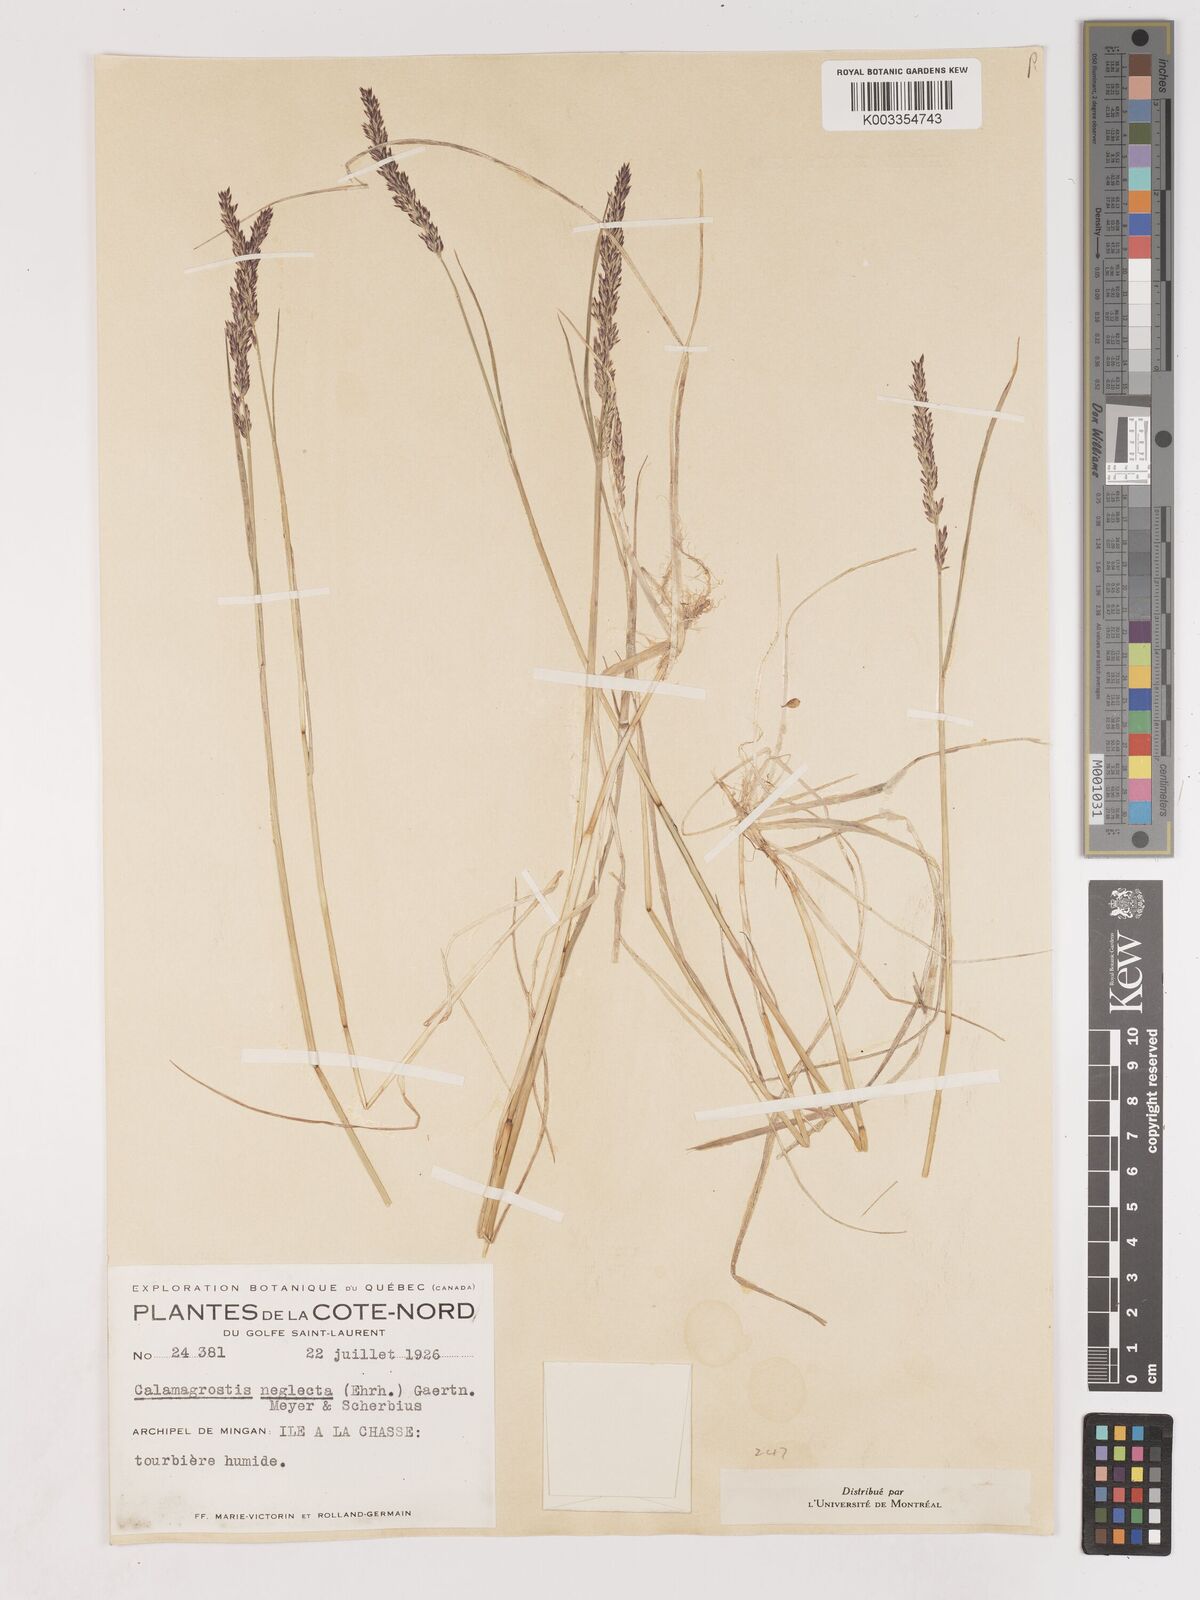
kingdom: Plantae
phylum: Tracheophyta
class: Liliopsida
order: Poales
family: Poaceae
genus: Cinnagrostis
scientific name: Cinnagrostis recta
